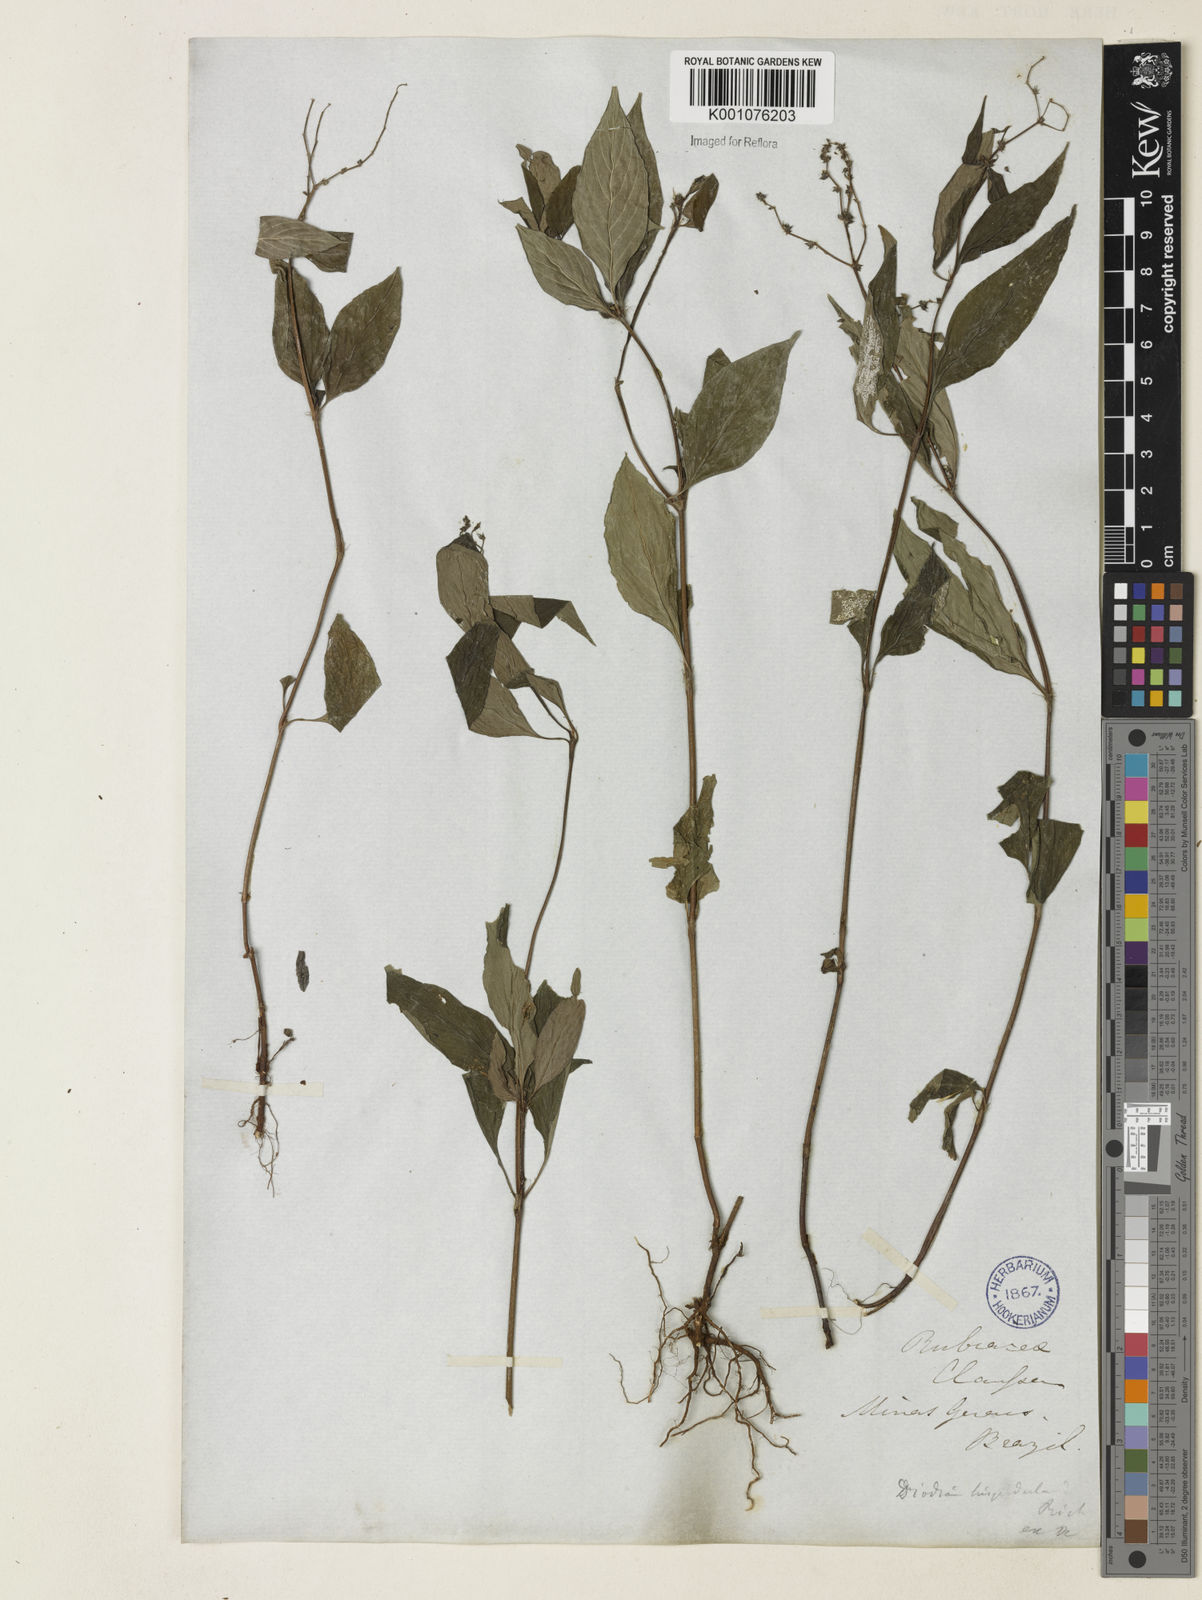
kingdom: Plantae
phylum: Tracheophyta
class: Magnoliopsida
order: Gentianales
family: Rubiaceae
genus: Spermacoce
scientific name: Spermacoce
